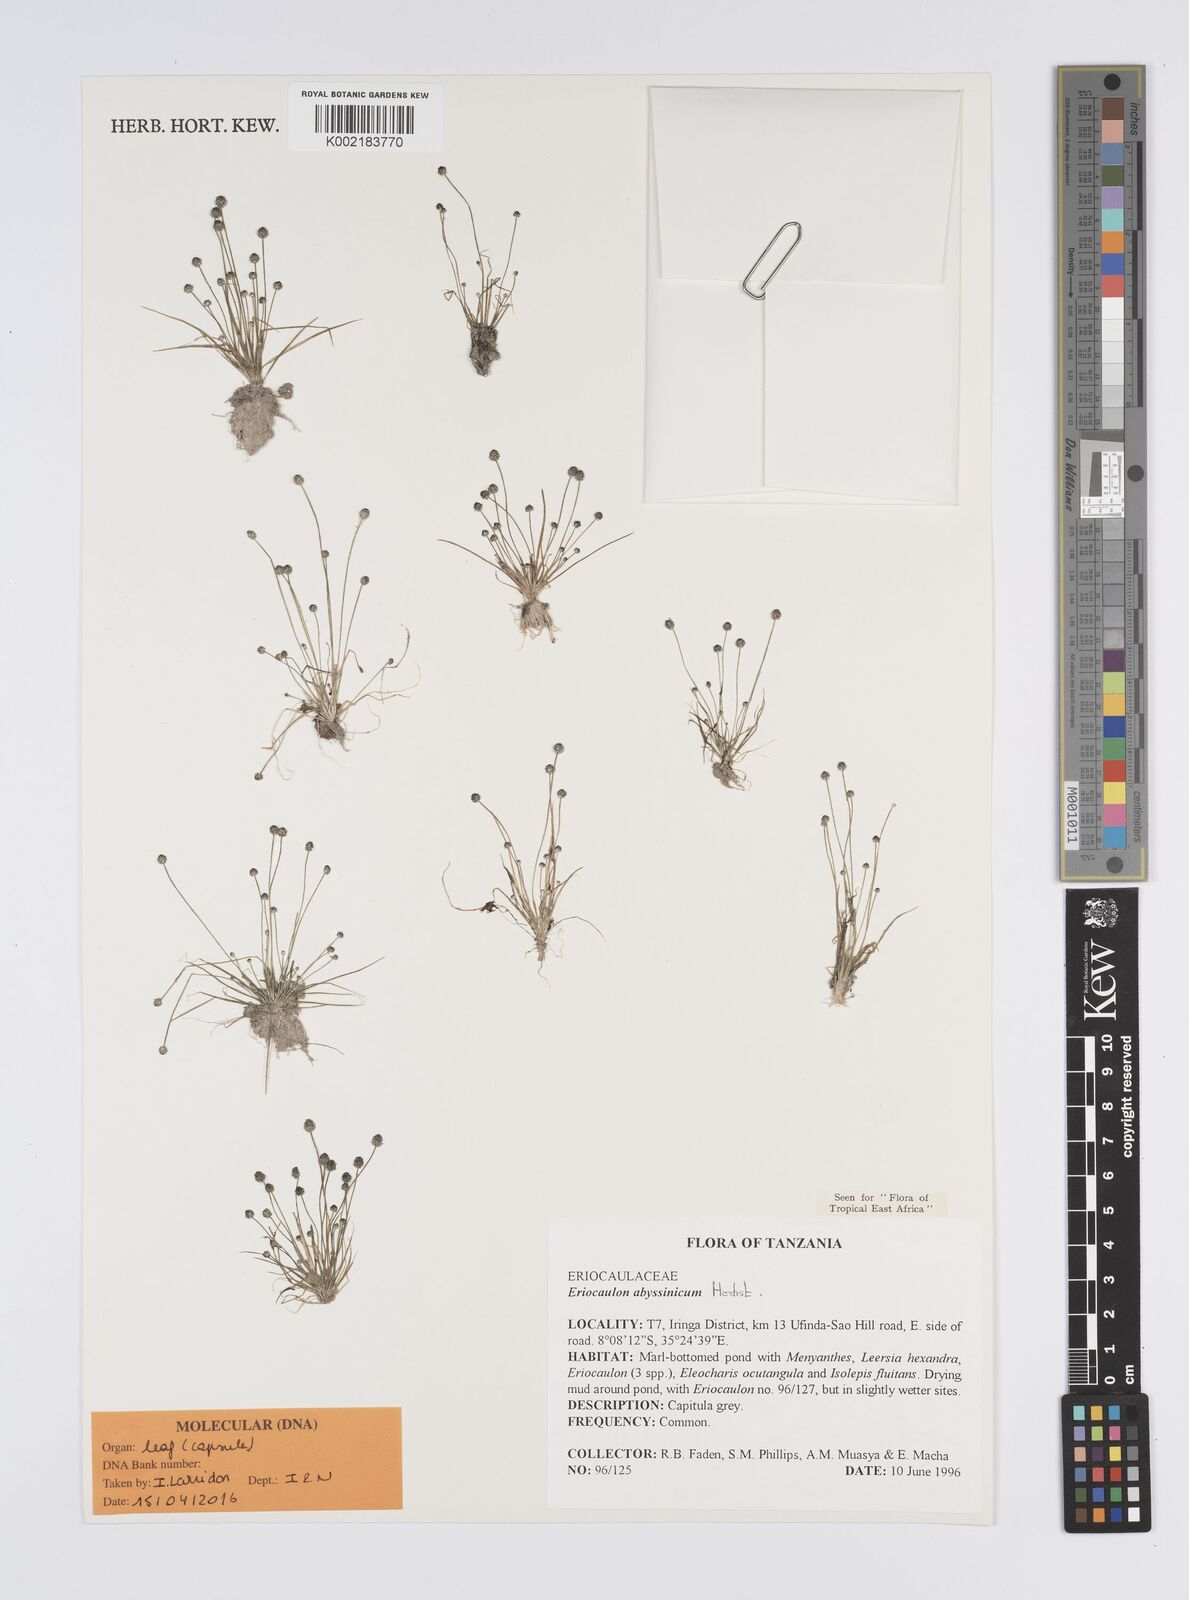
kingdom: Plantae
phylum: Tracheophyta
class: Liliopsida
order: Poales
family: Eriocaulaceae
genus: Eriocaulon
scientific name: Eriocaulon abyssinicum
